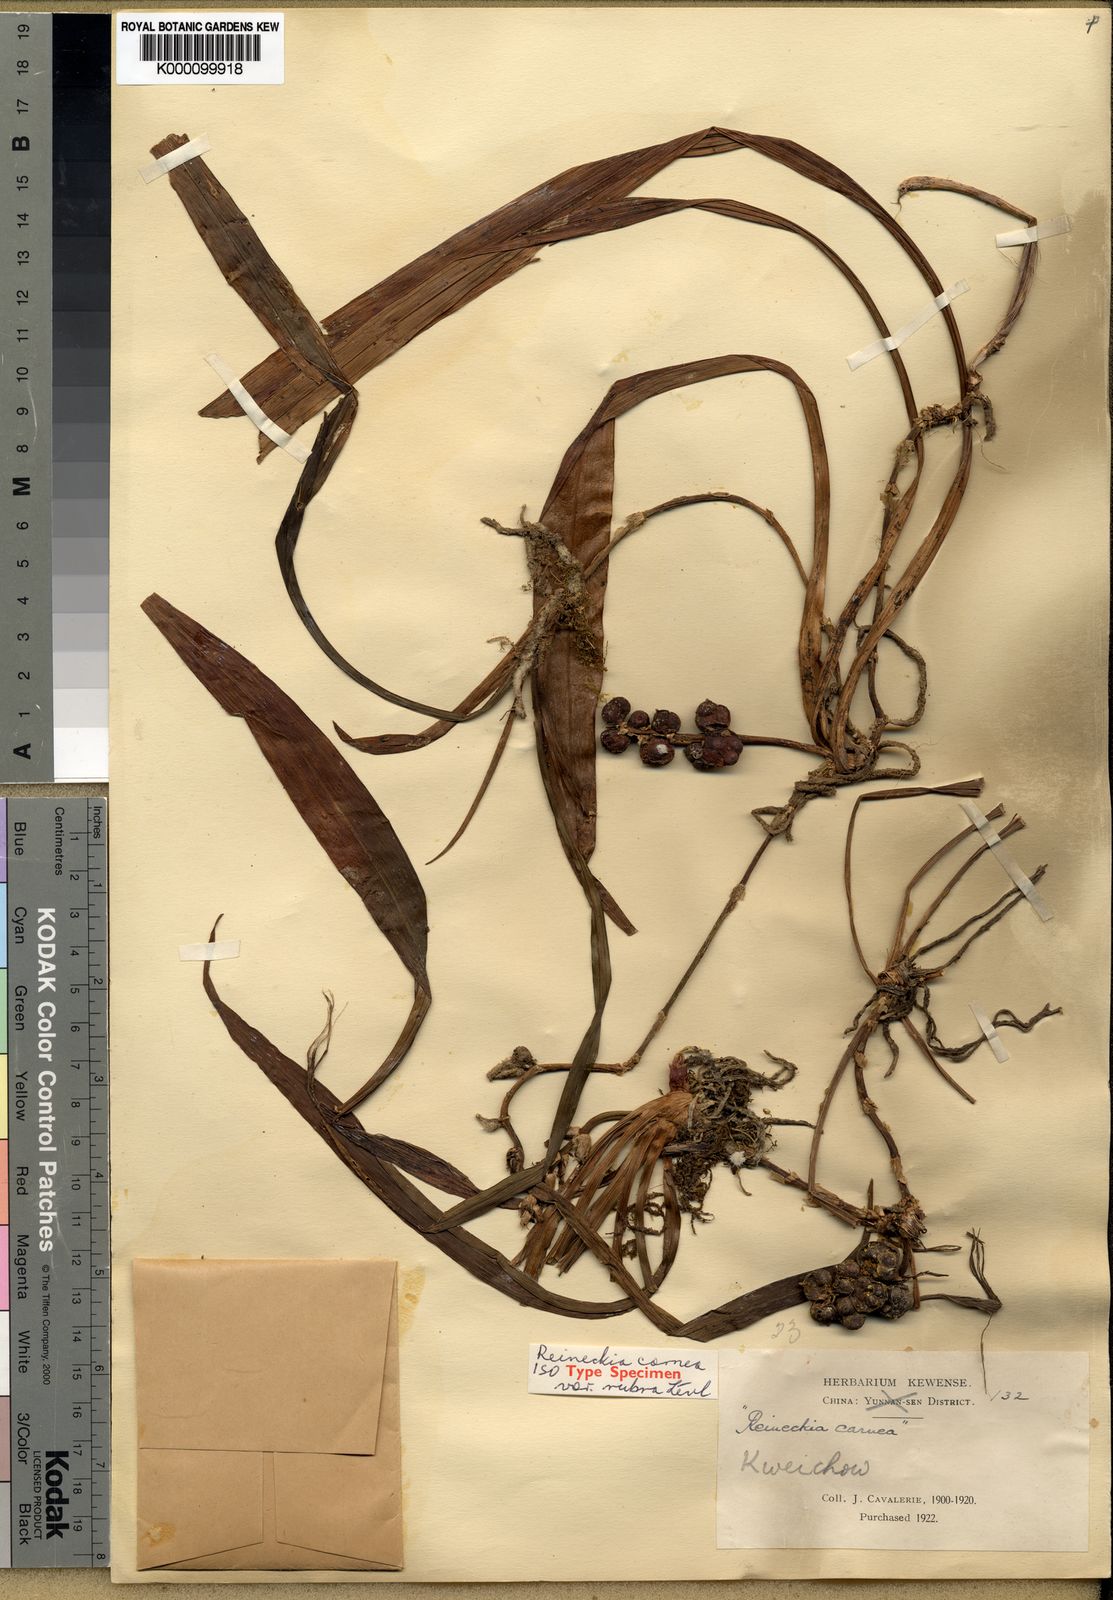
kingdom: Plantae
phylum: Tracheophyta
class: Liliopsida
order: Asparagales
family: Asparagaceae
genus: Reineckea
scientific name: Reineckea carnea
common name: Reineckea
